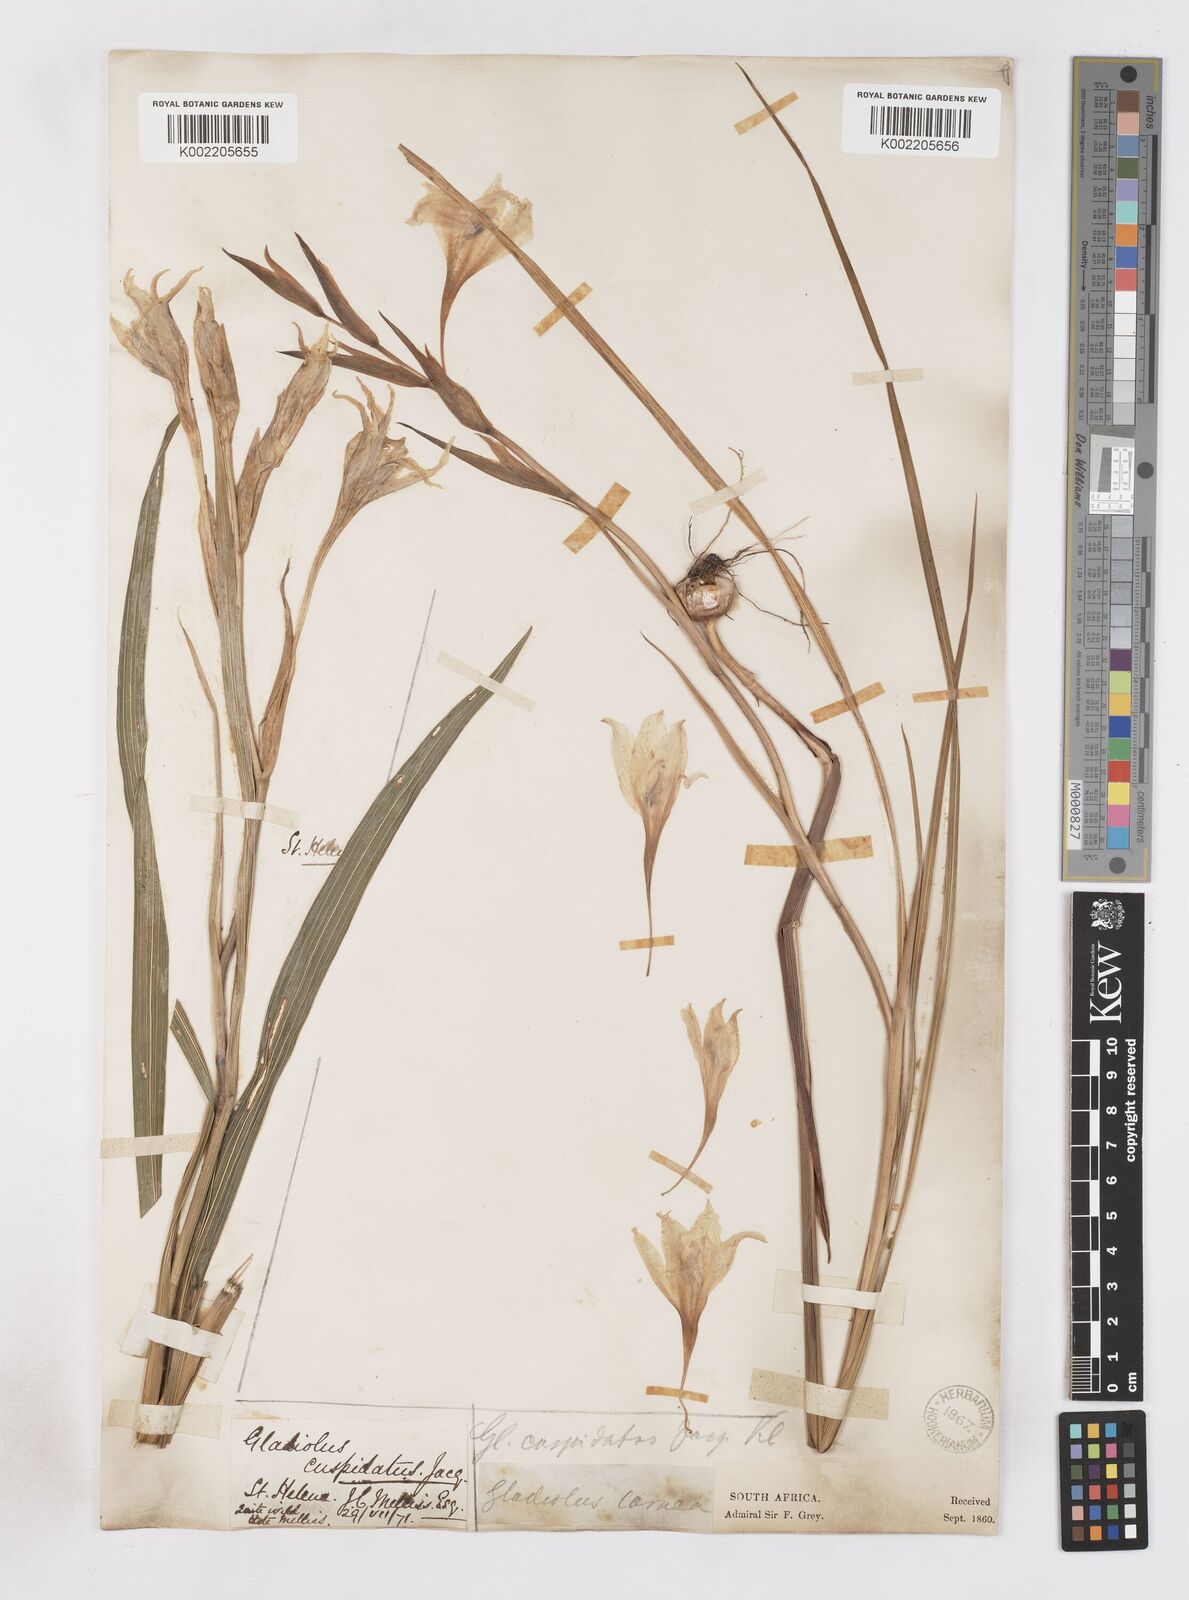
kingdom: Plantae
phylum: Tracheophyta
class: Liliopsida
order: Asparagales
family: Iridaceae
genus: Gladiolus
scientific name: Gladiolus undulatus
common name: Large painted-lady
